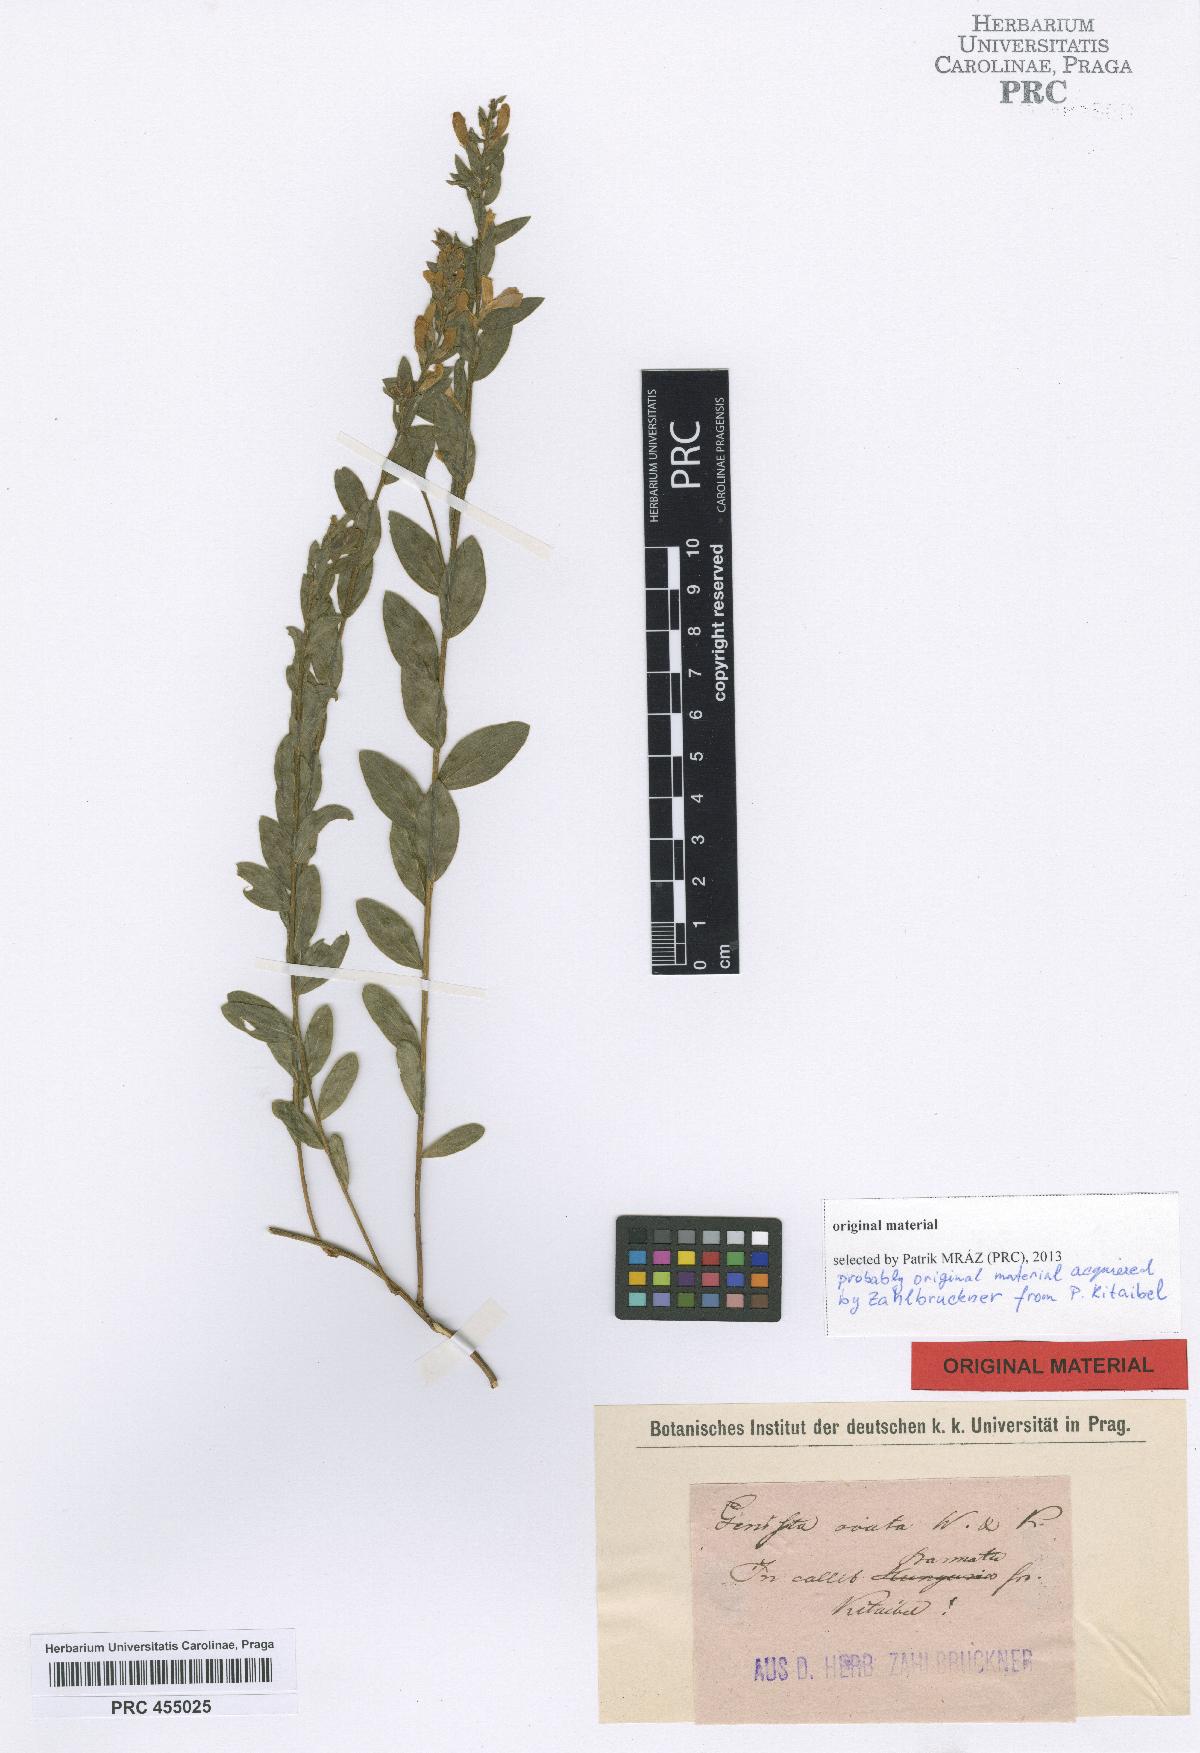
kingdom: Plantae
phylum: Tracheophyta
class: Magnoliopsida
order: Fabales
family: Fabaceae
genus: Genista
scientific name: Genista tinctoria
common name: Dyer's greenweed
